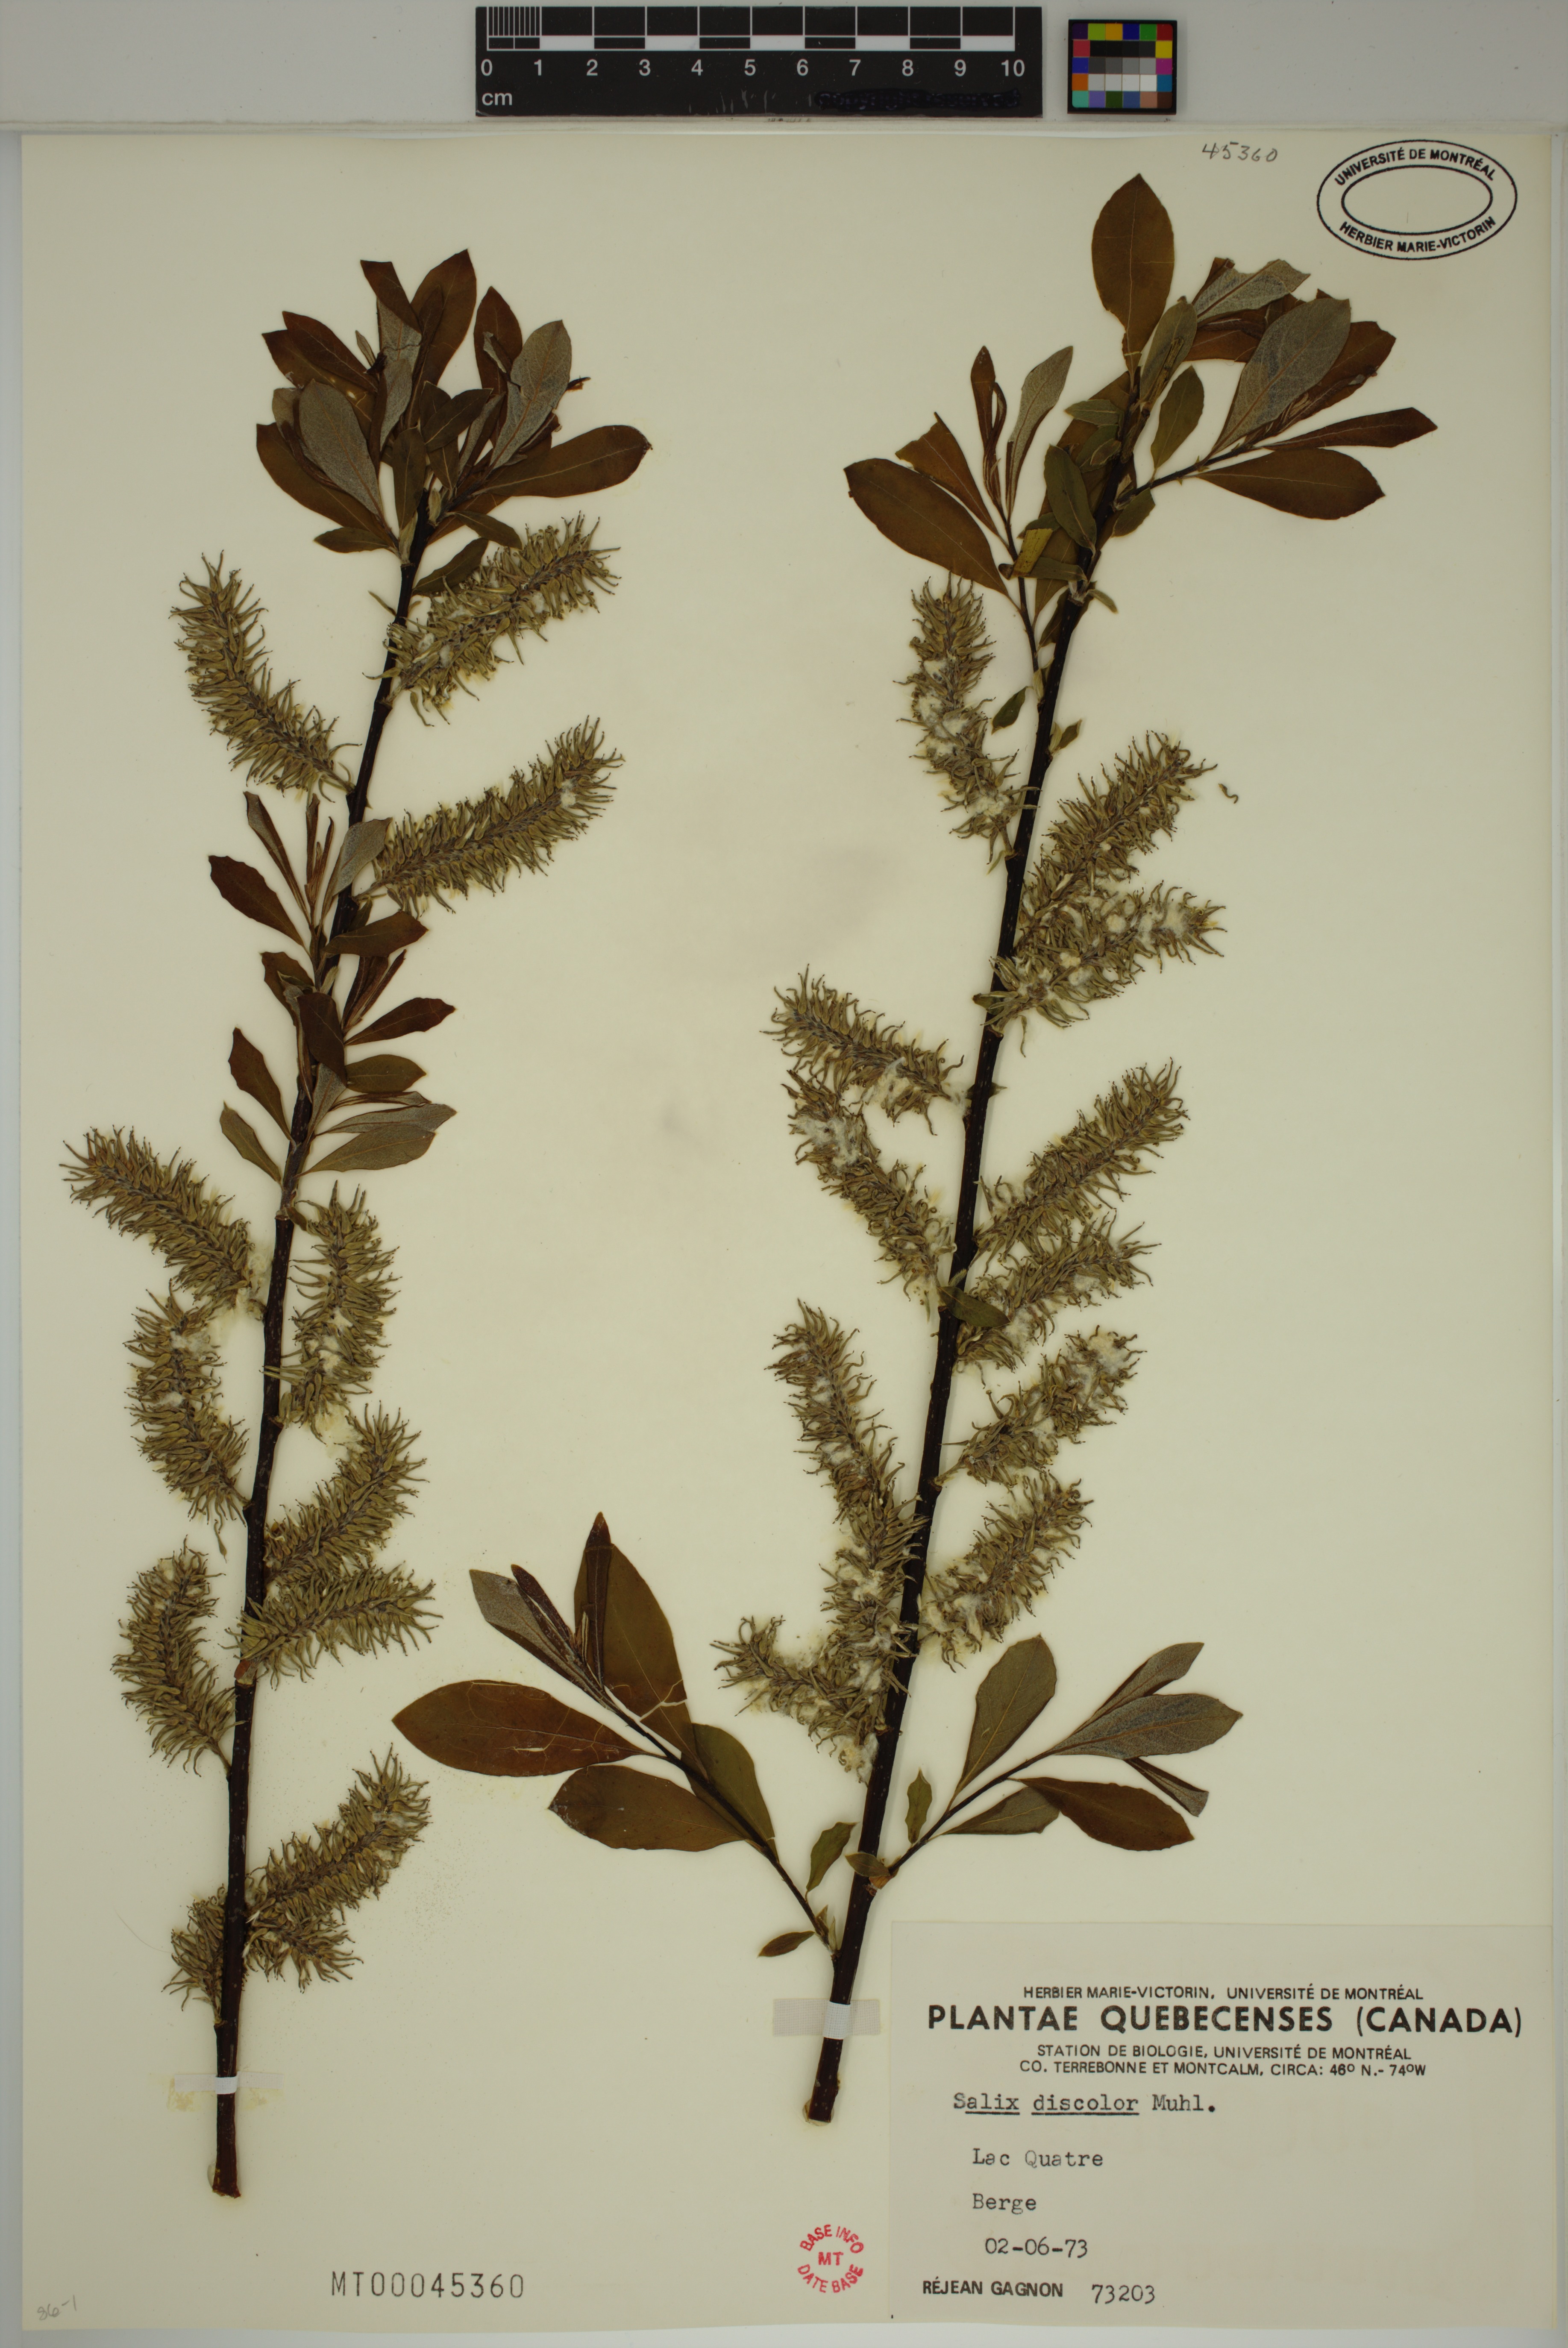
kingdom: Plantae
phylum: Tracheophyta
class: Magnoliopsida
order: Malpighiales
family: Salicaceae
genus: Salix
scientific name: Salix discolor
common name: Glaucous willow
